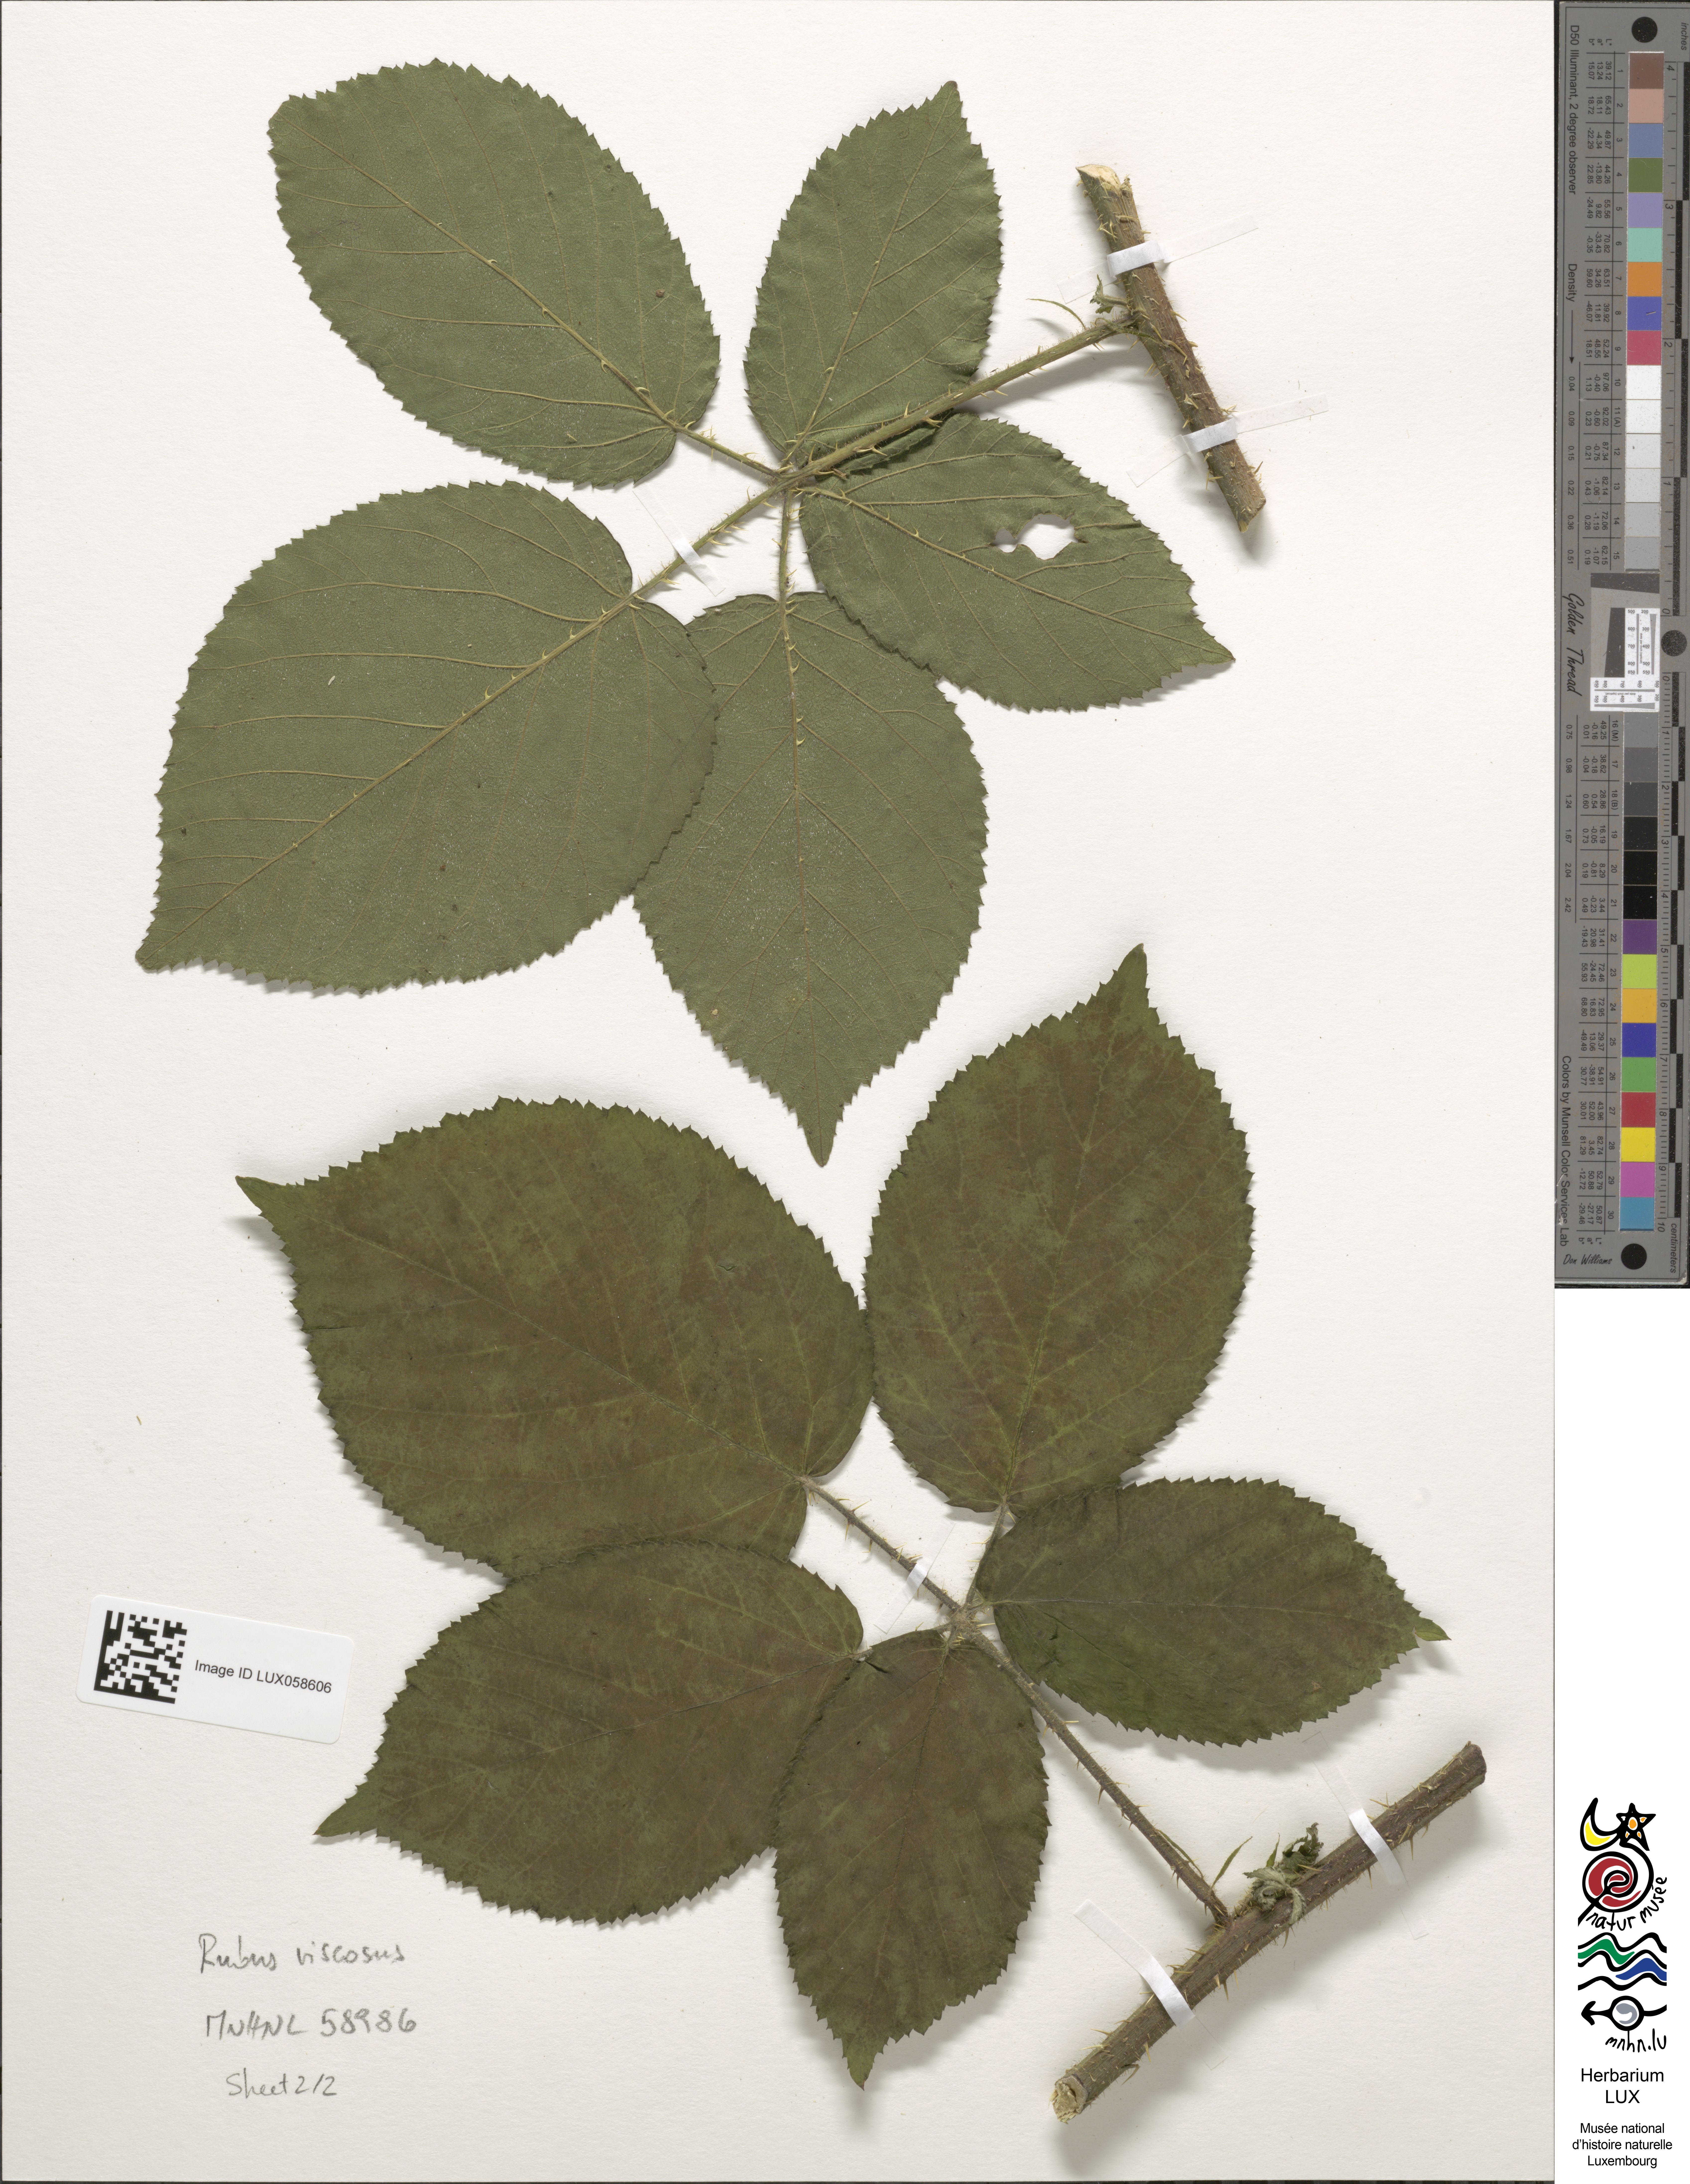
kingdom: Plantae
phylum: Tracheophyta
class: Magnoliopsida
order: Rosales
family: Rosaceae
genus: Rubus
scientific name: Rubus viscosus
